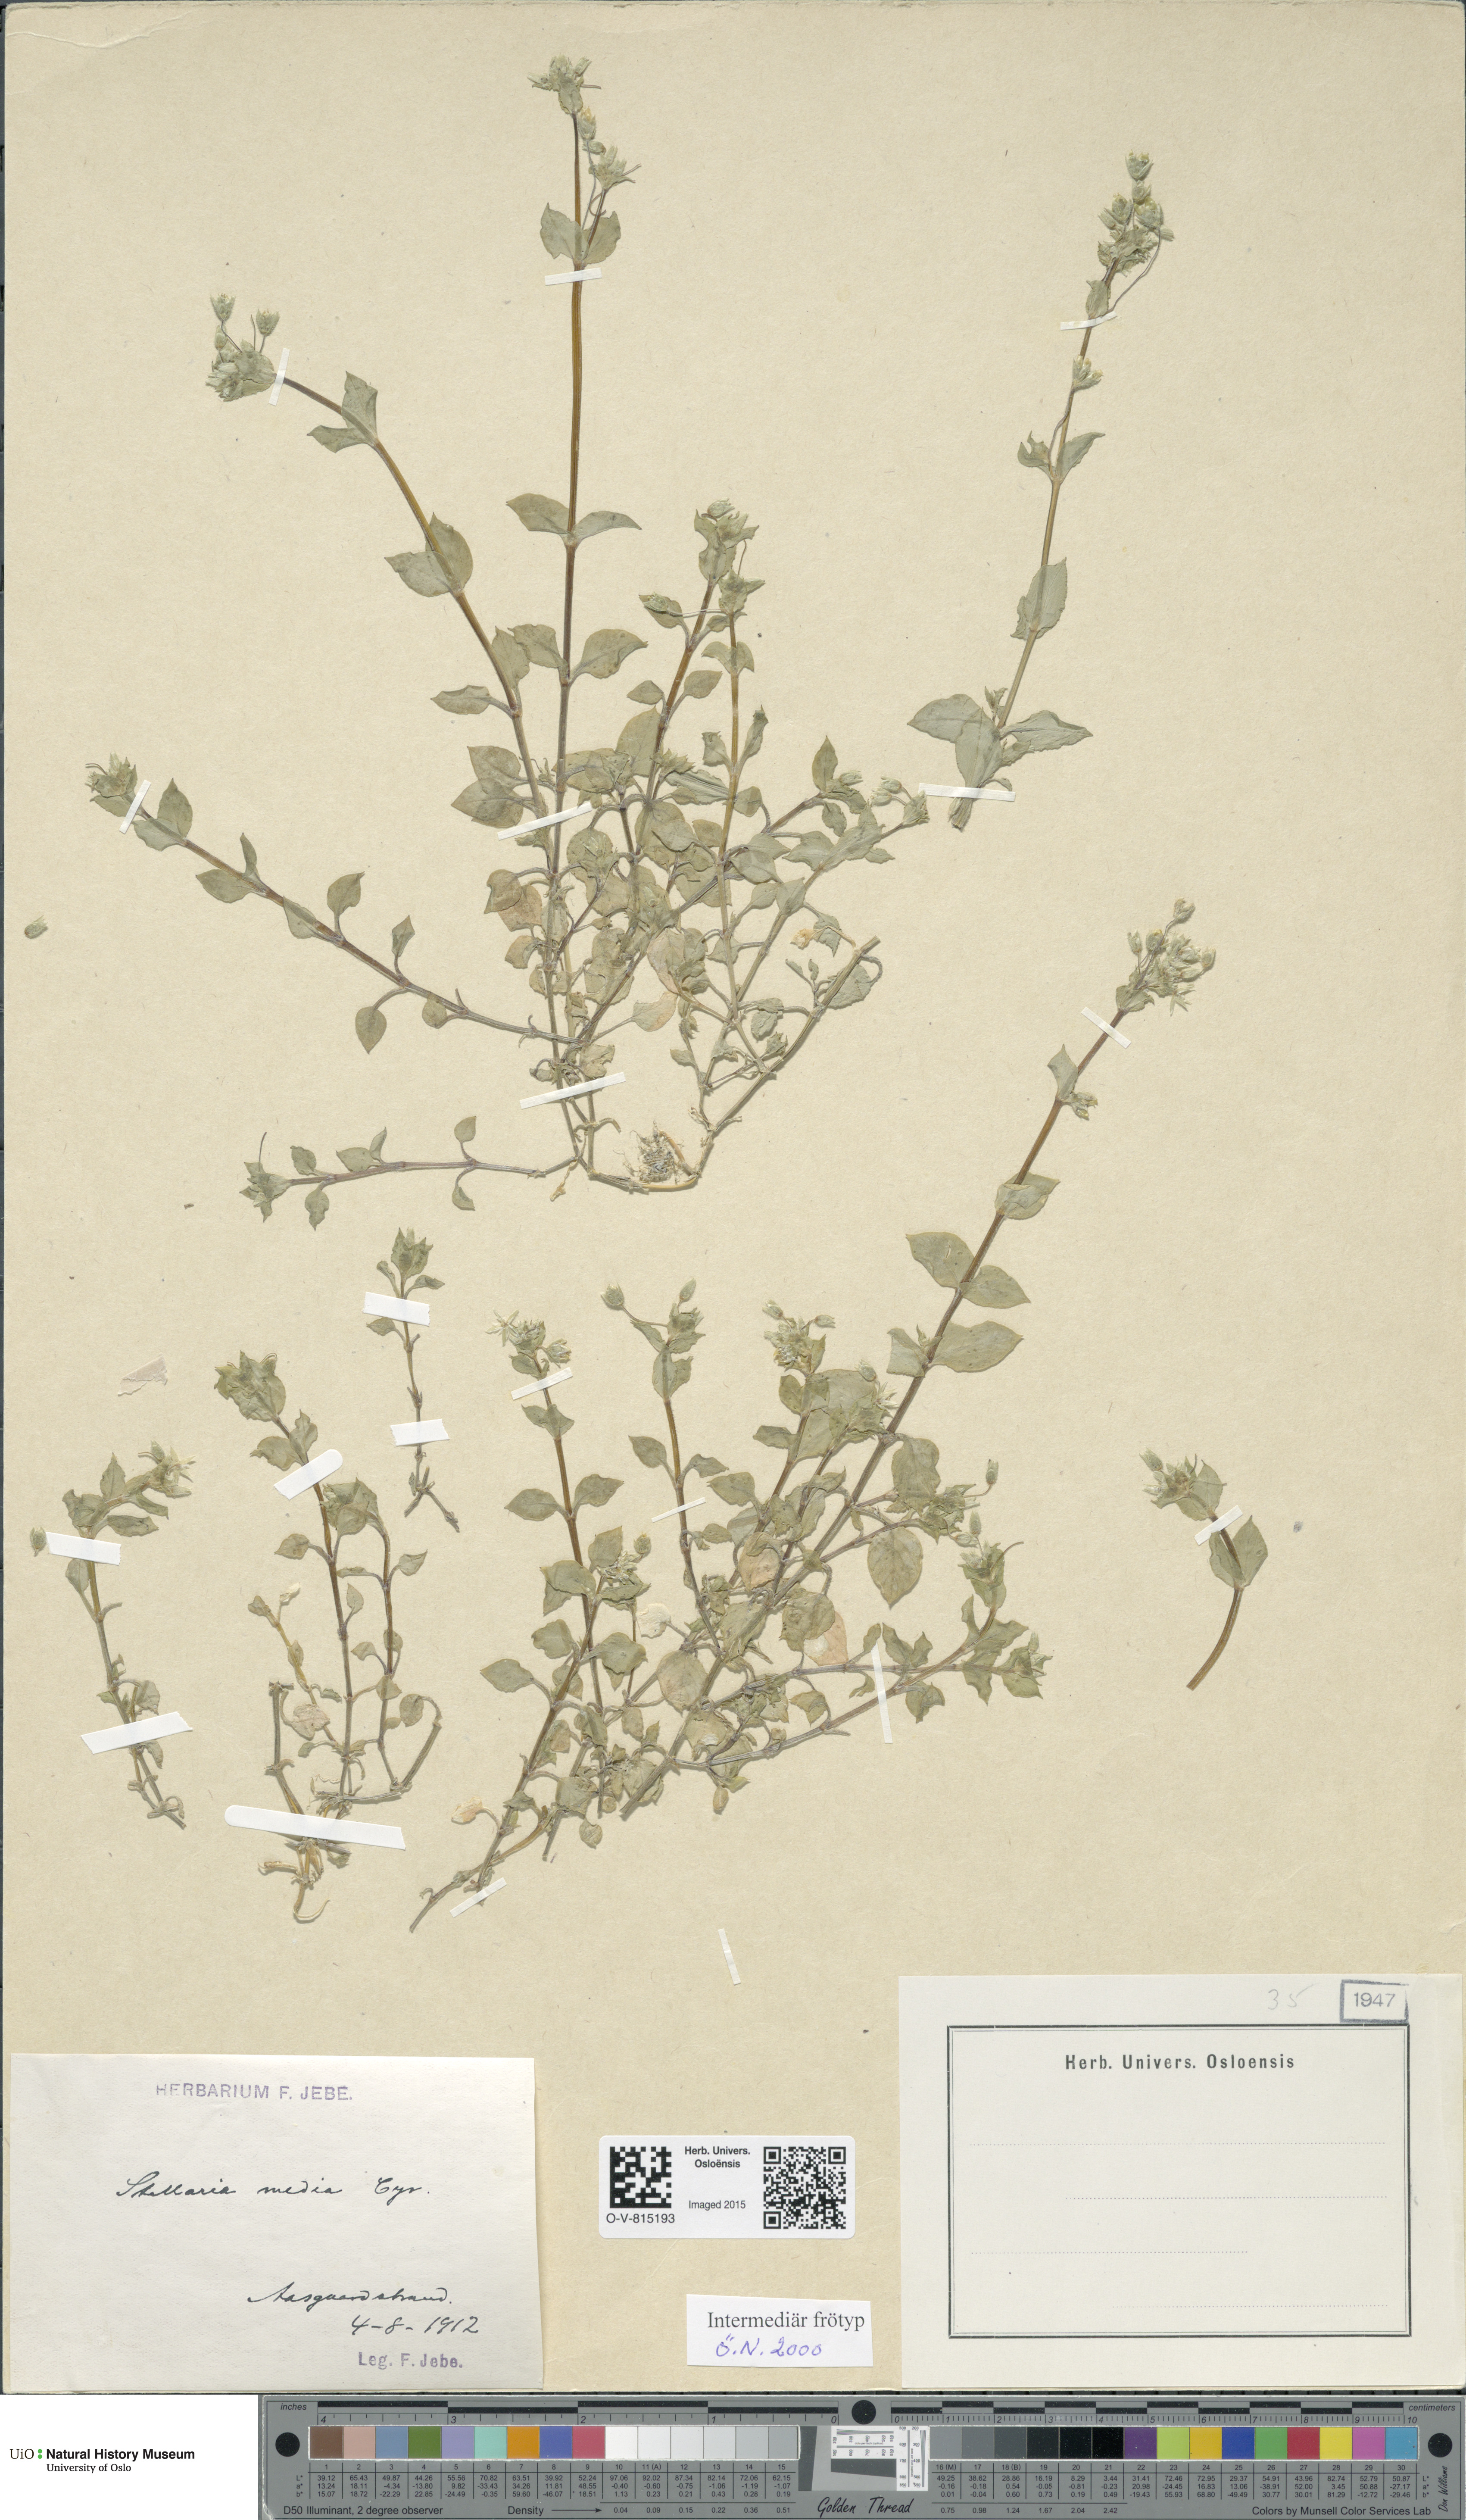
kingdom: Plantae
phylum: Tracheophyta
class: Magnoliopsida
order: Caryophyllales
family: Caryophyllaceae
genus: Stellaria
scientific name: Stellaria media
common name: Common chickweed
